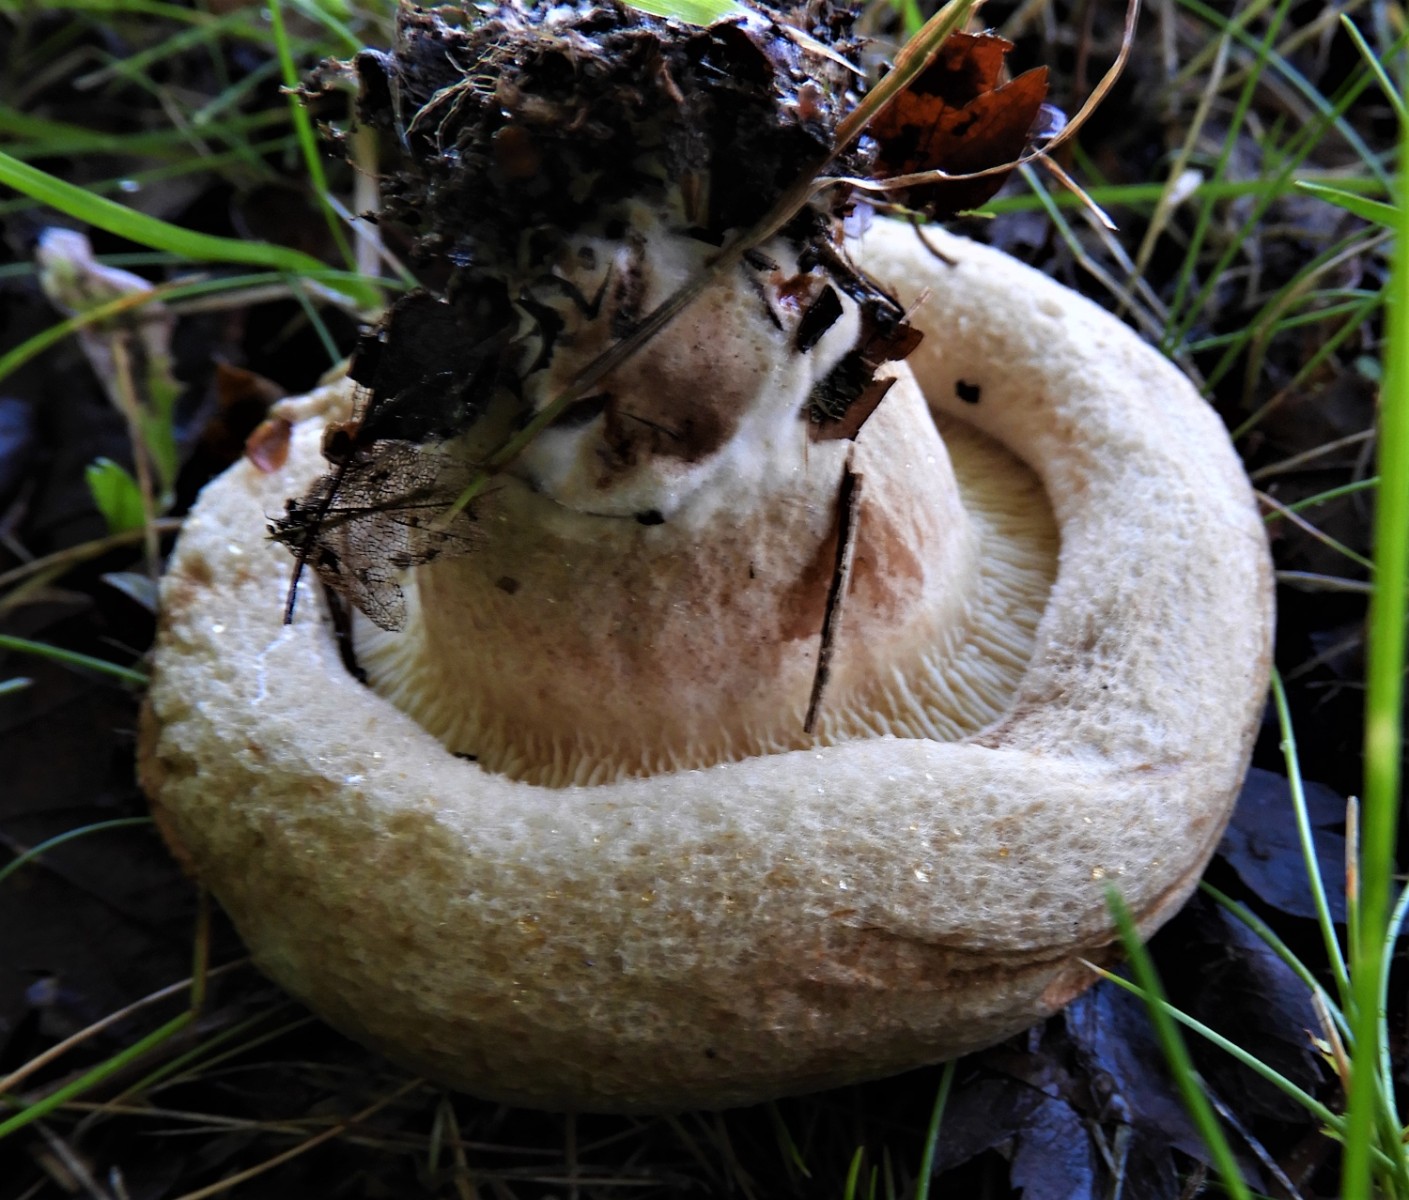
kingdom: Fungi
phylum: Basidiomycota
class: Agaricomycetes
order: Boletales
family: Paxillaceae
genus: Paxillus
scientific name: Paxillus obscurisporus
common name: mahognisporet netbladhat
